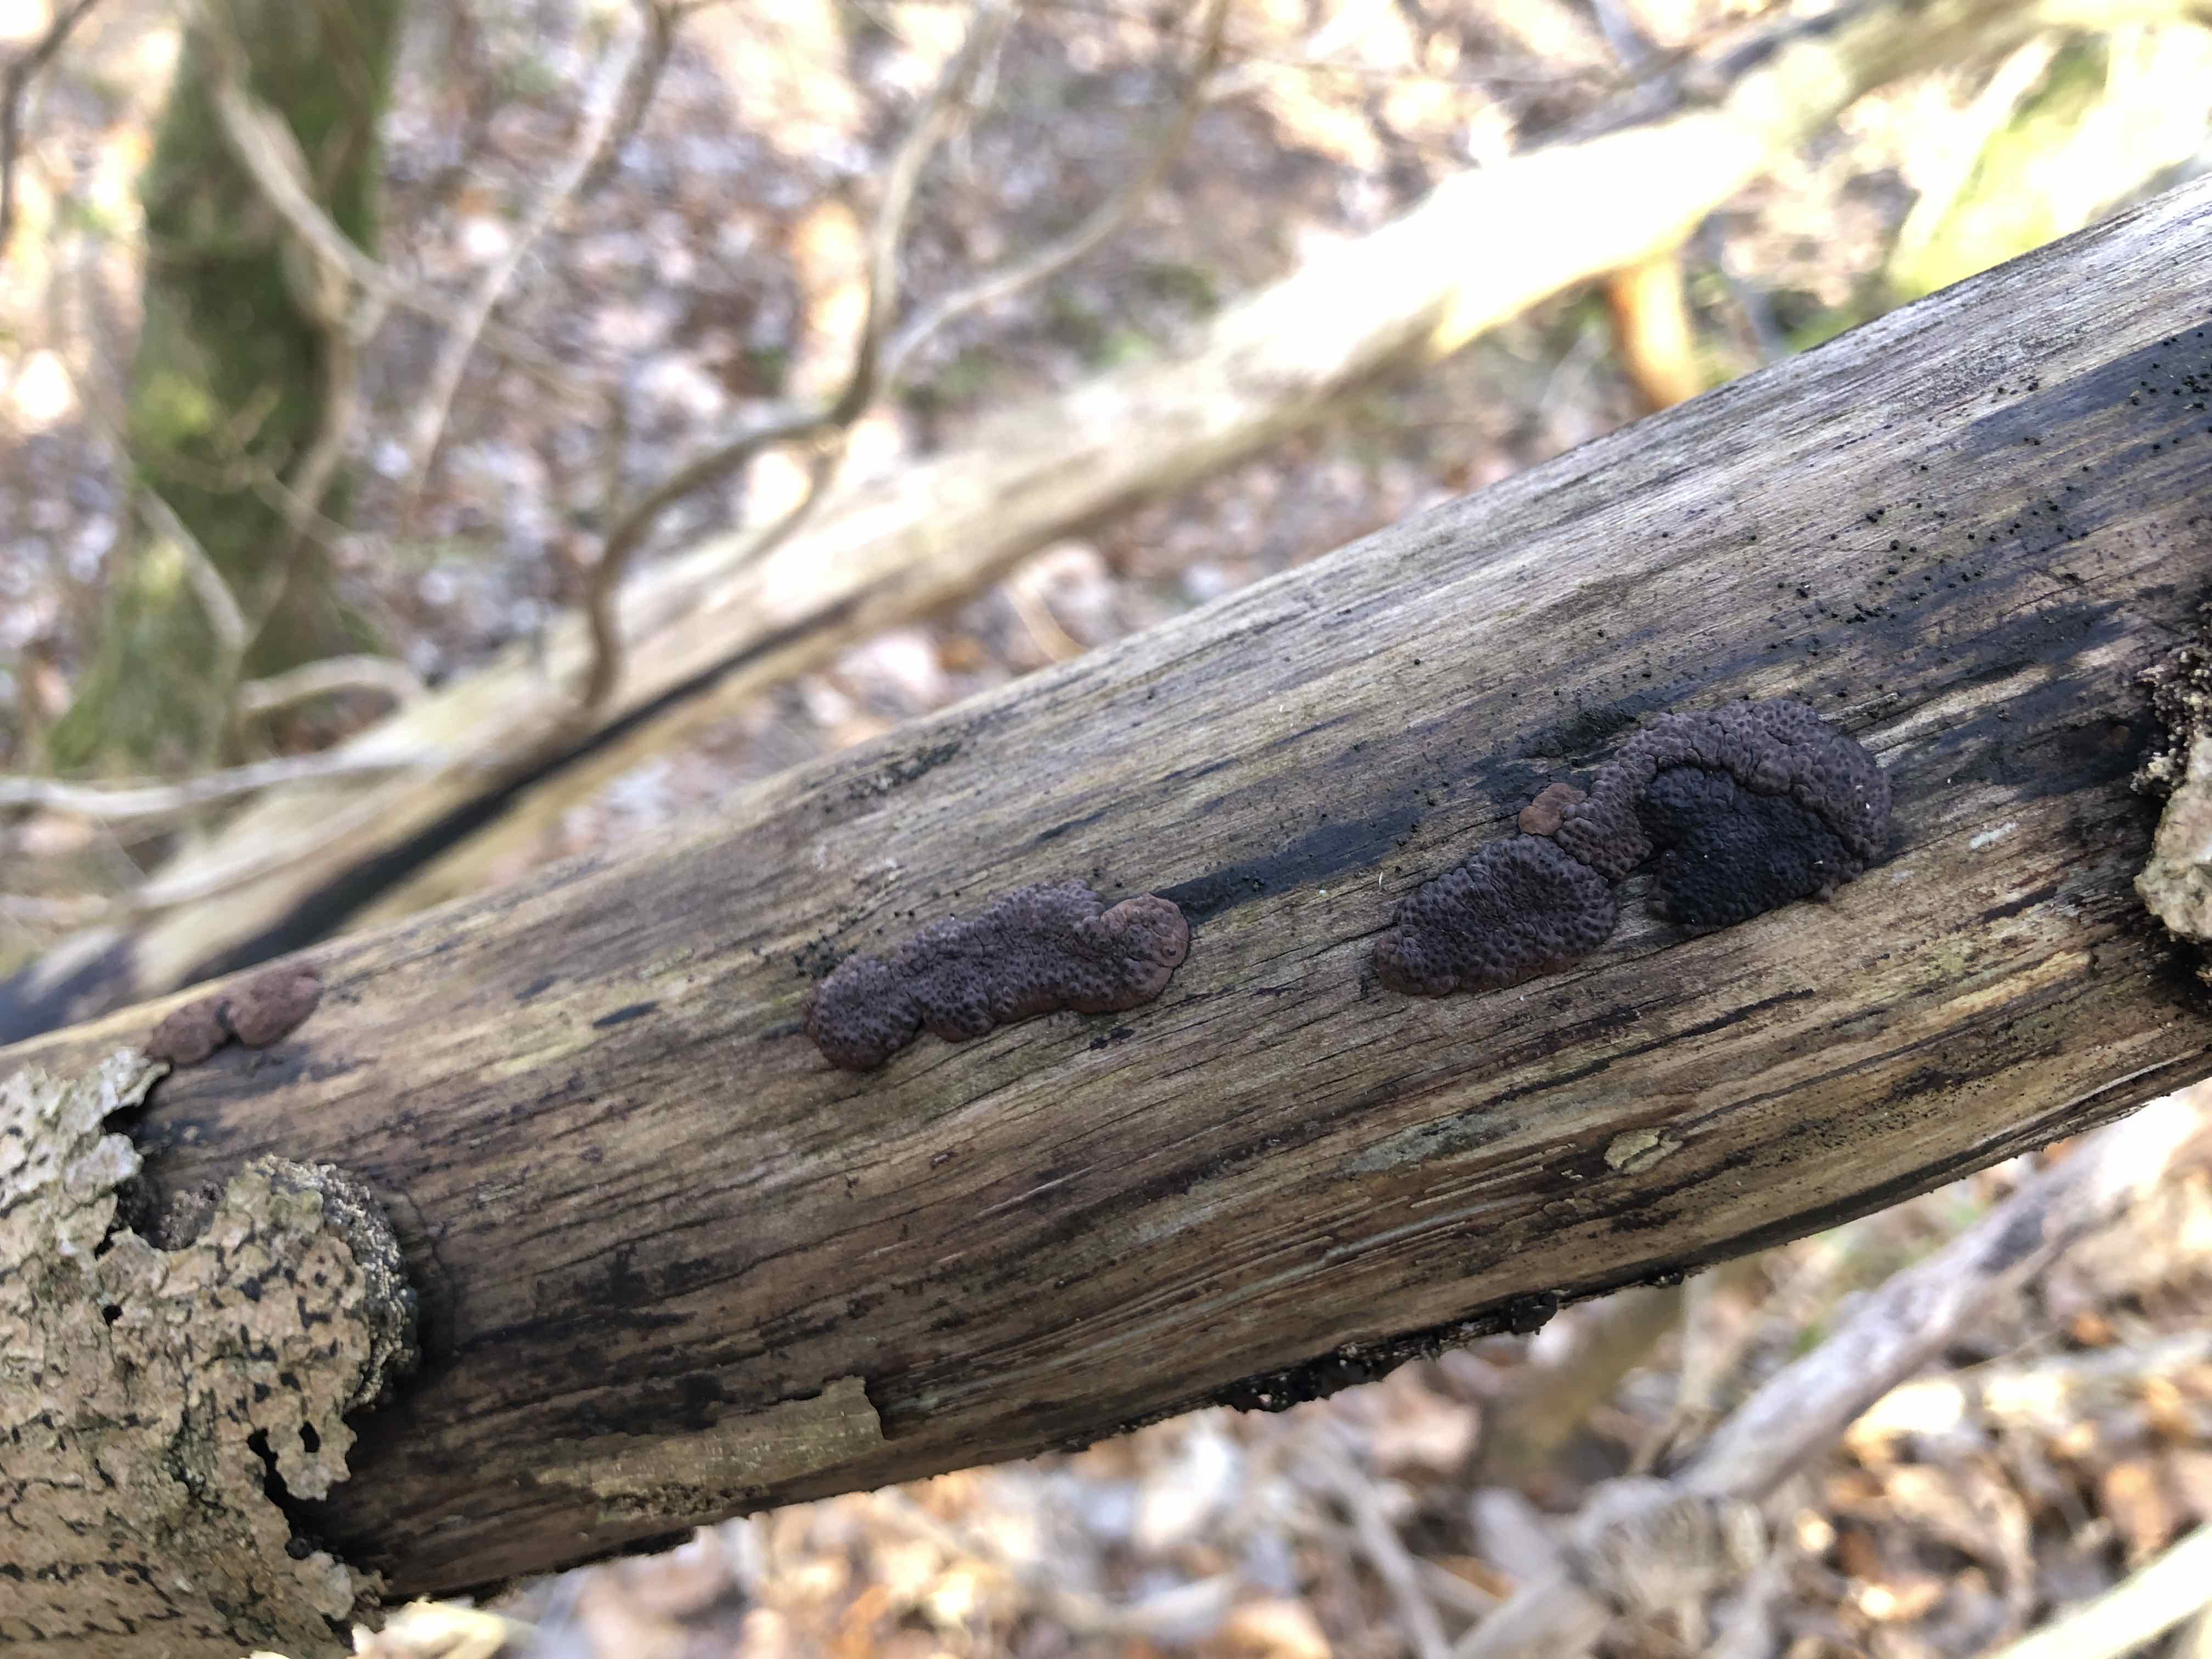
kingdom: Fungi
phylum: Ascomycota
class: Sordariomycetes
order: Xylariales
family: Hypoxylaceae
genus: Jackrogersella
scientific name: Jackrogersella multiformis
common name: foranderlig kulbær
